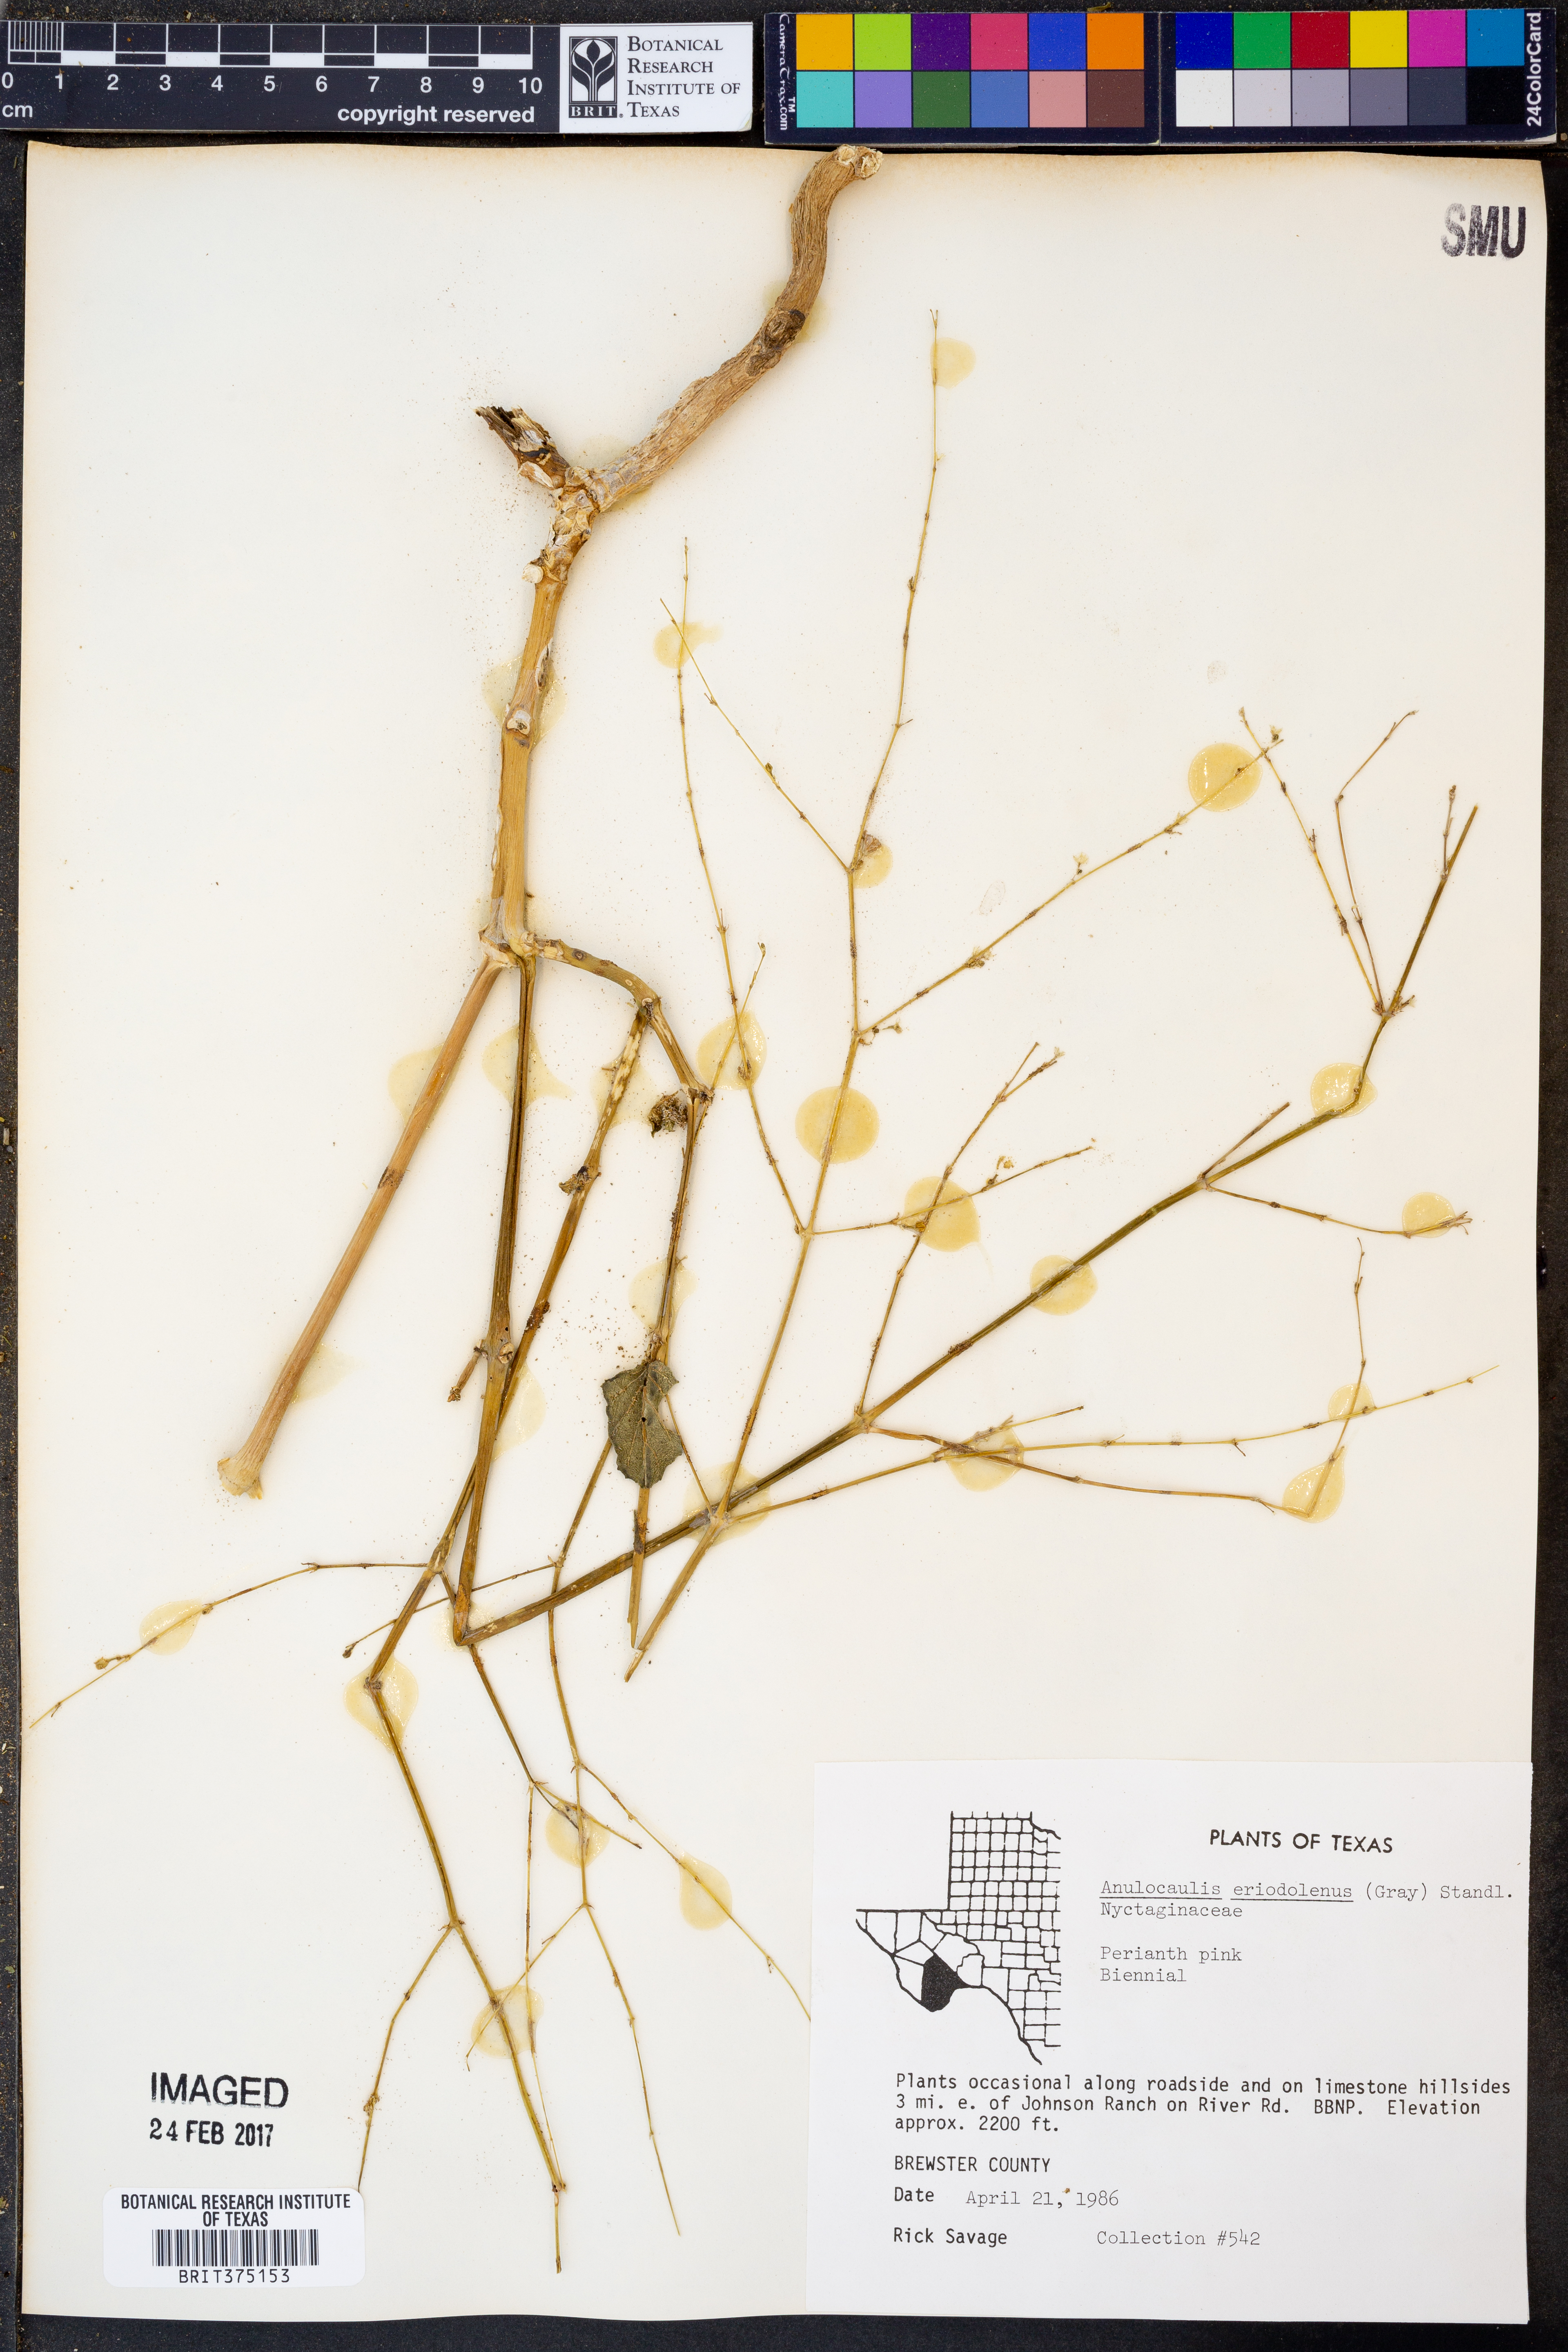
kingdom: Plantae
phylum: Tracheophyta
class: Magnoliopsida
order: Caryophyllales
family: Nyctaginaceae
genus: Anulocaulis
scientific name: Anulocaulis eriosolenus
